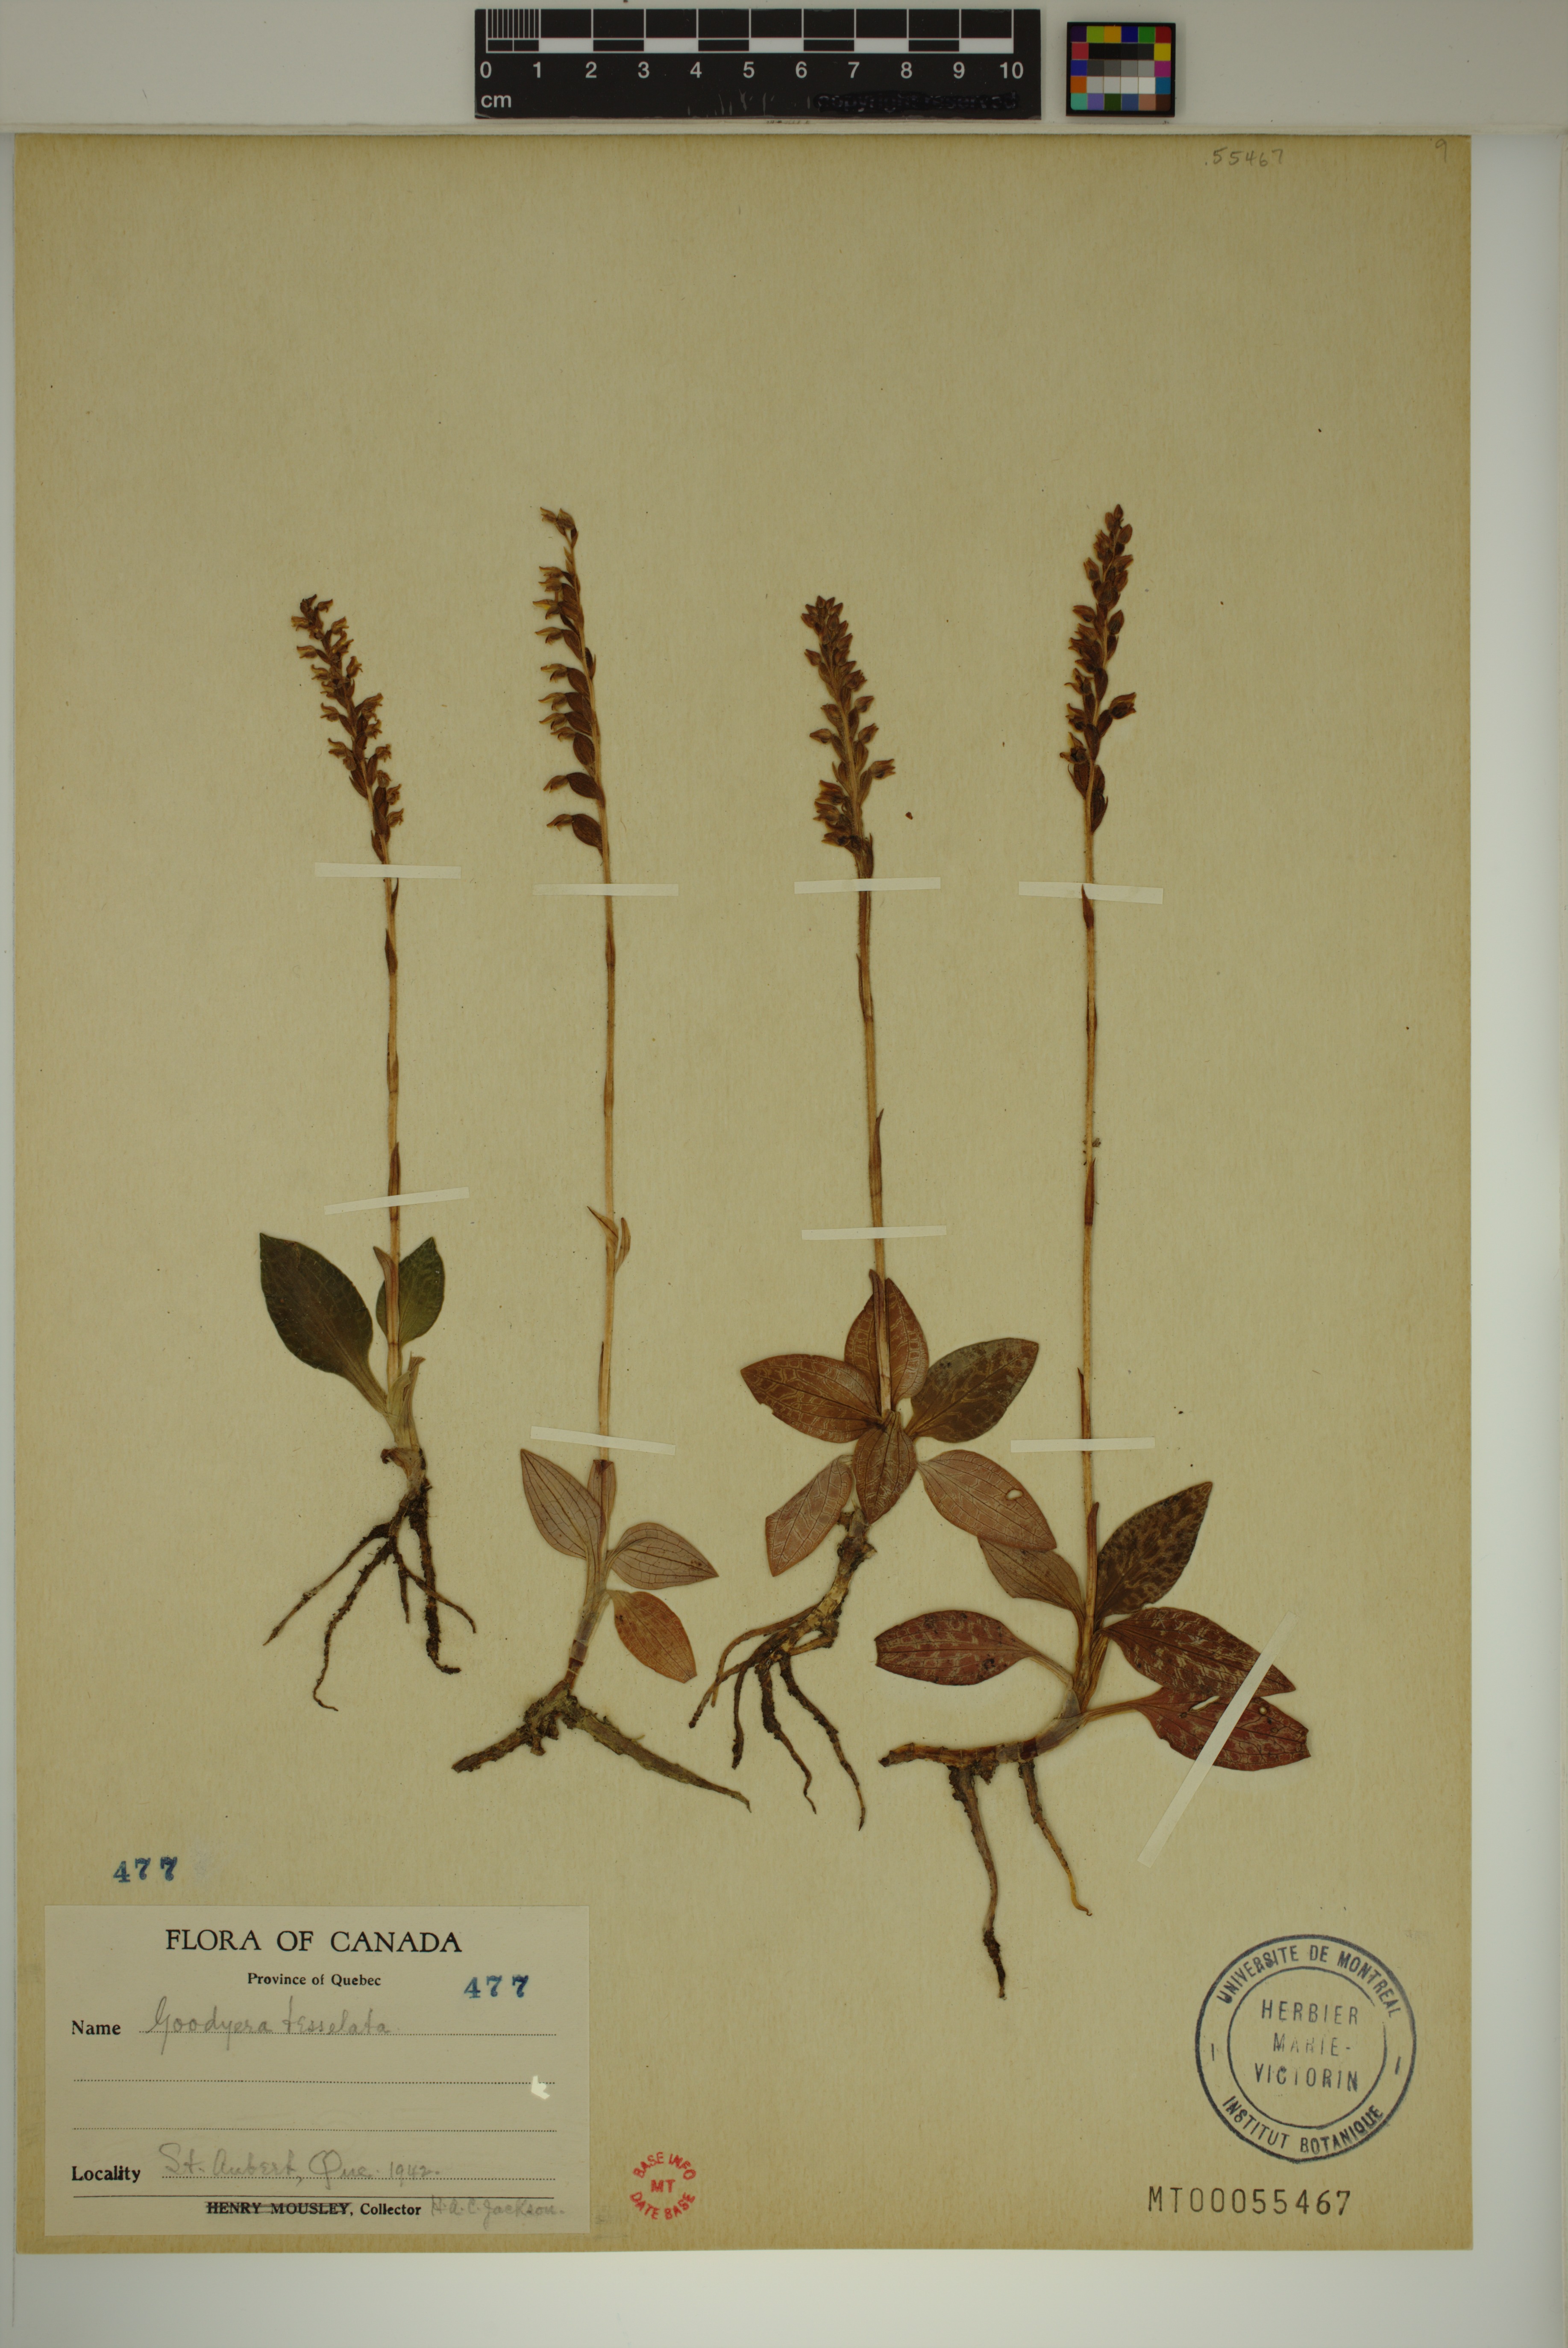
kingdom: Plantae
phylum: Tracheophyta
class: Liliopsida
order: Asparagales
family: Orchidaceae
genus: Goodyera
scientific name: Goodyera tesselata
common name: Checkered rattlesnake-plantain
